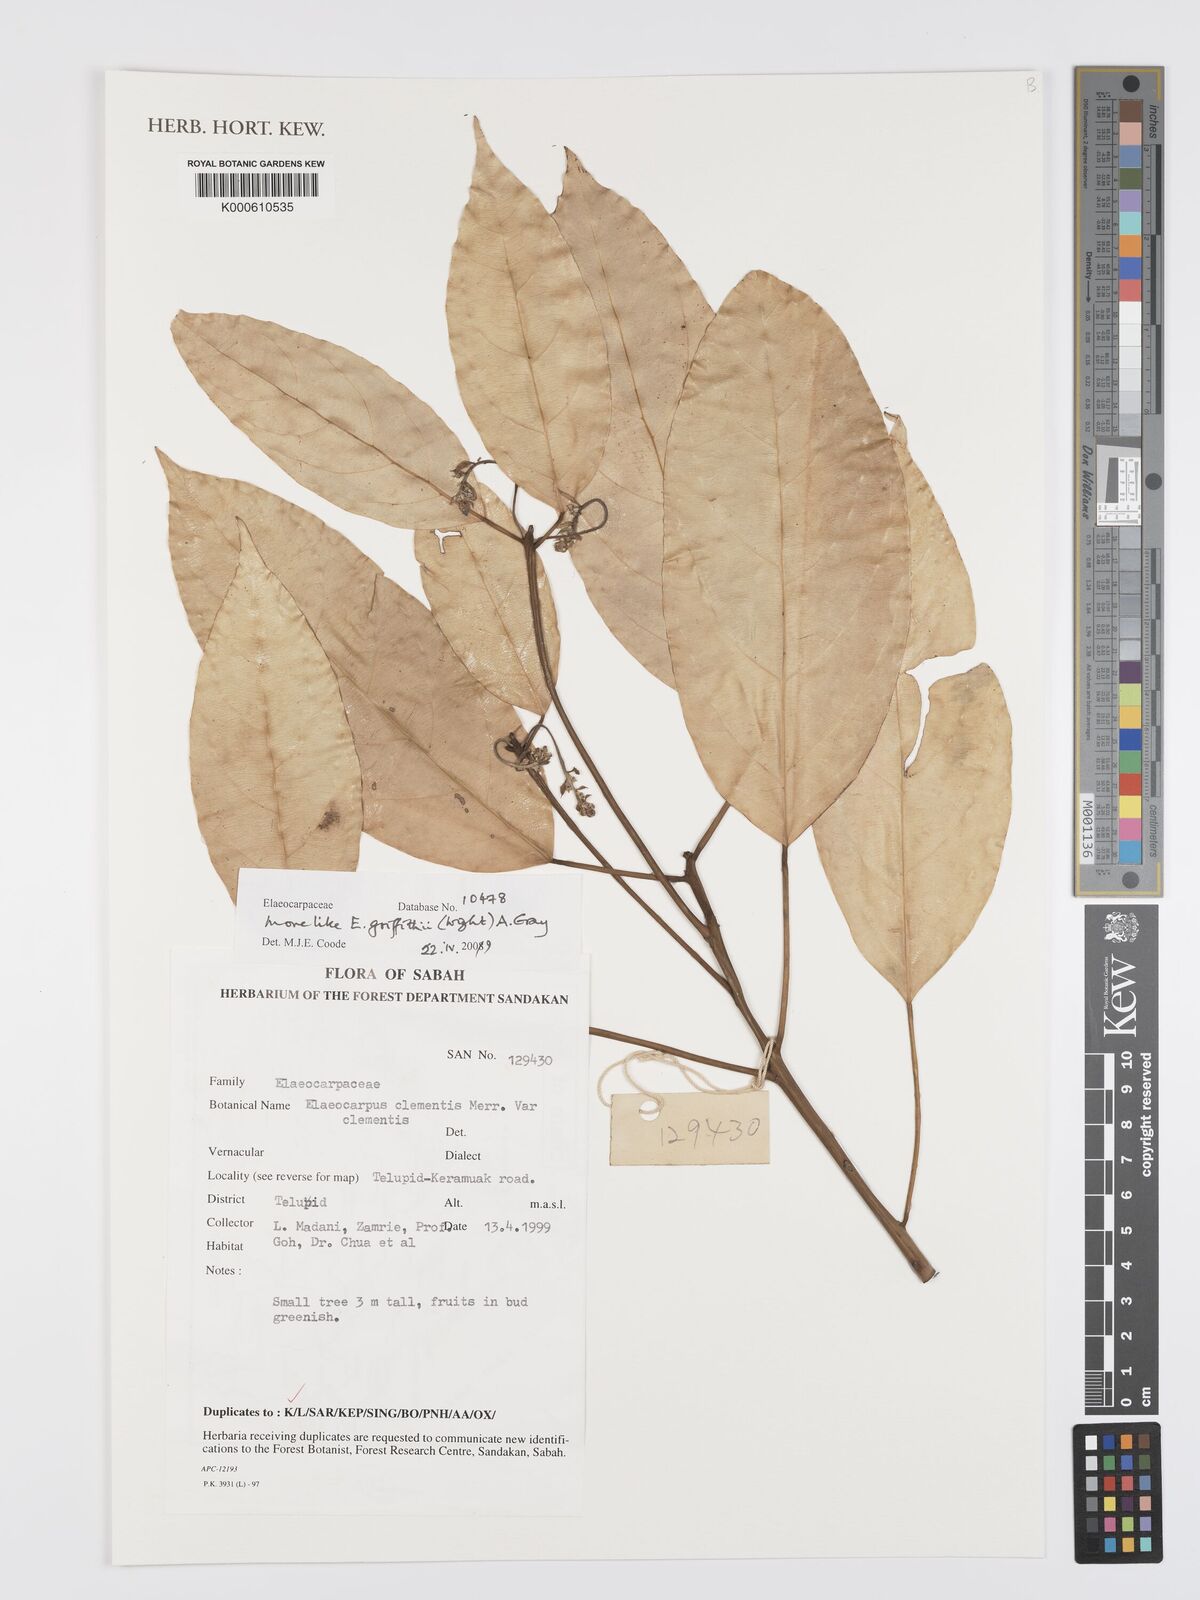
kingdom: Plantae
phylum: Tracheophyta
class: Magnoliopsida
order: Oxalidales
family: Elaeocarpaceae
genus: Elaeocarpus
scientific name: Elaeocarpus
